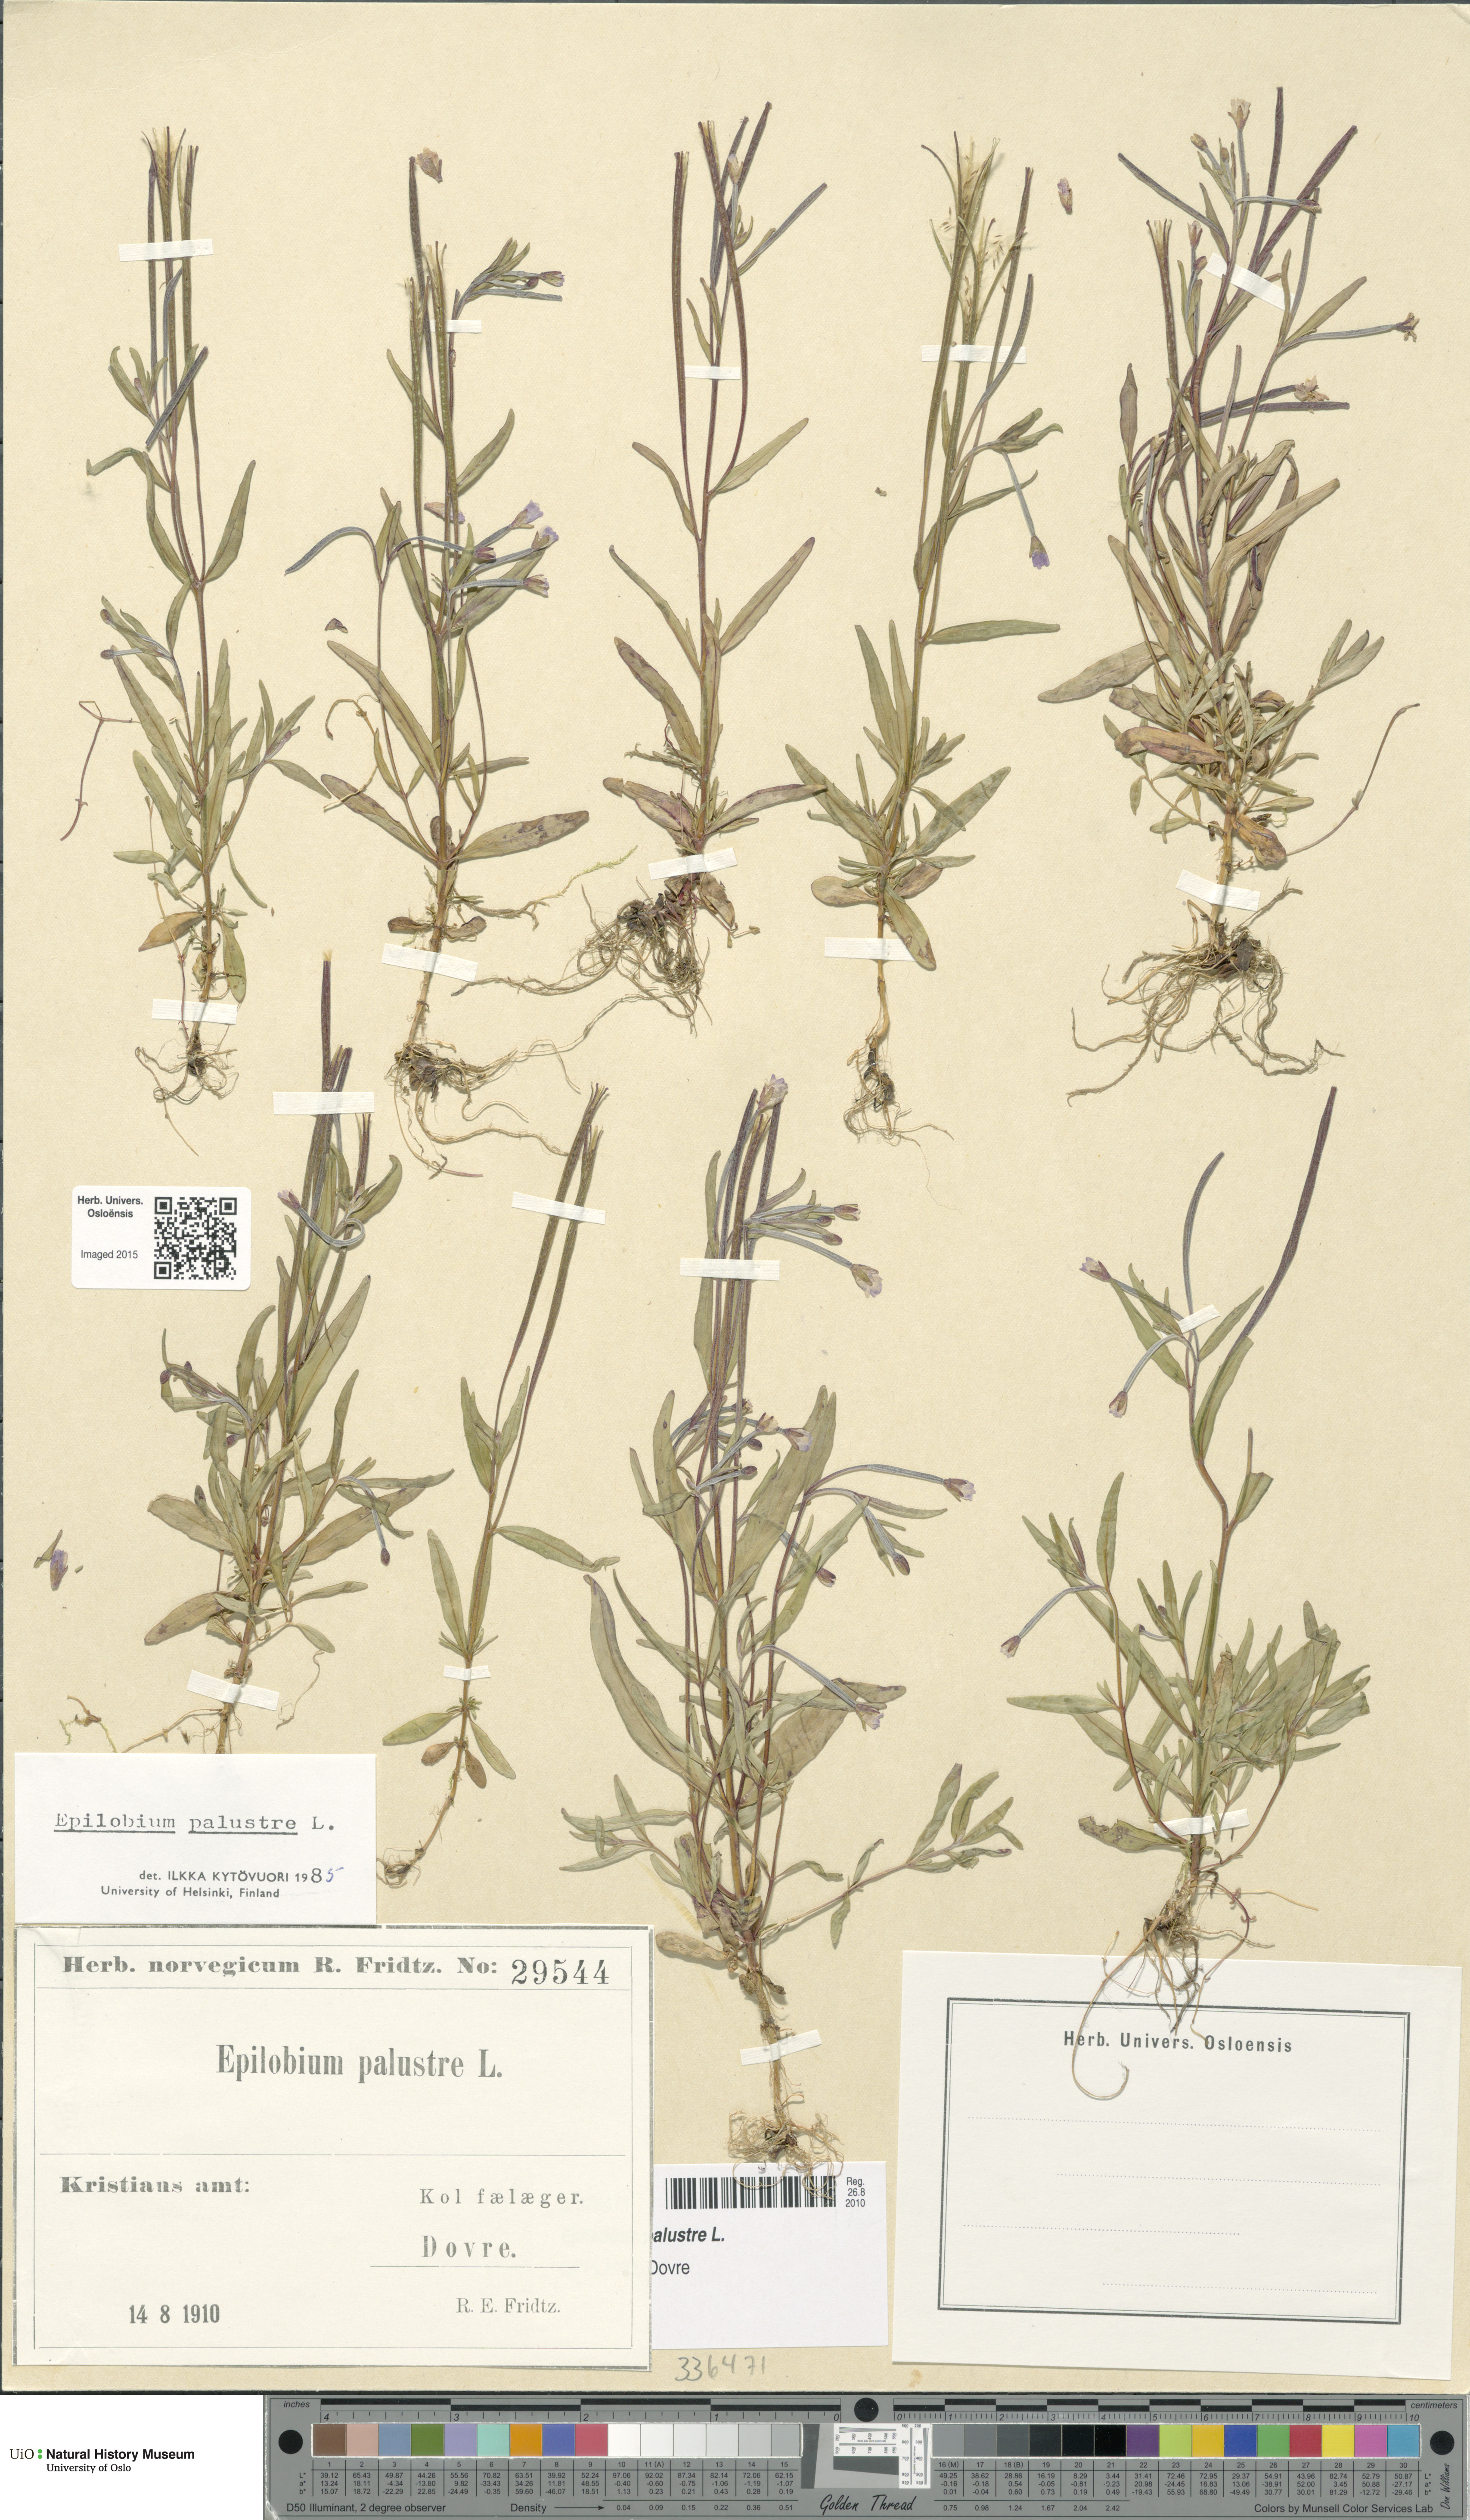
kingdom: Plantae
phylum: Tracheophyta
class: Magnoliopsida
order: Myrtales
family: Onagraceae
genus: Epilobium
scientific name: Epilobium palustre
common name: Marsh willowherb
